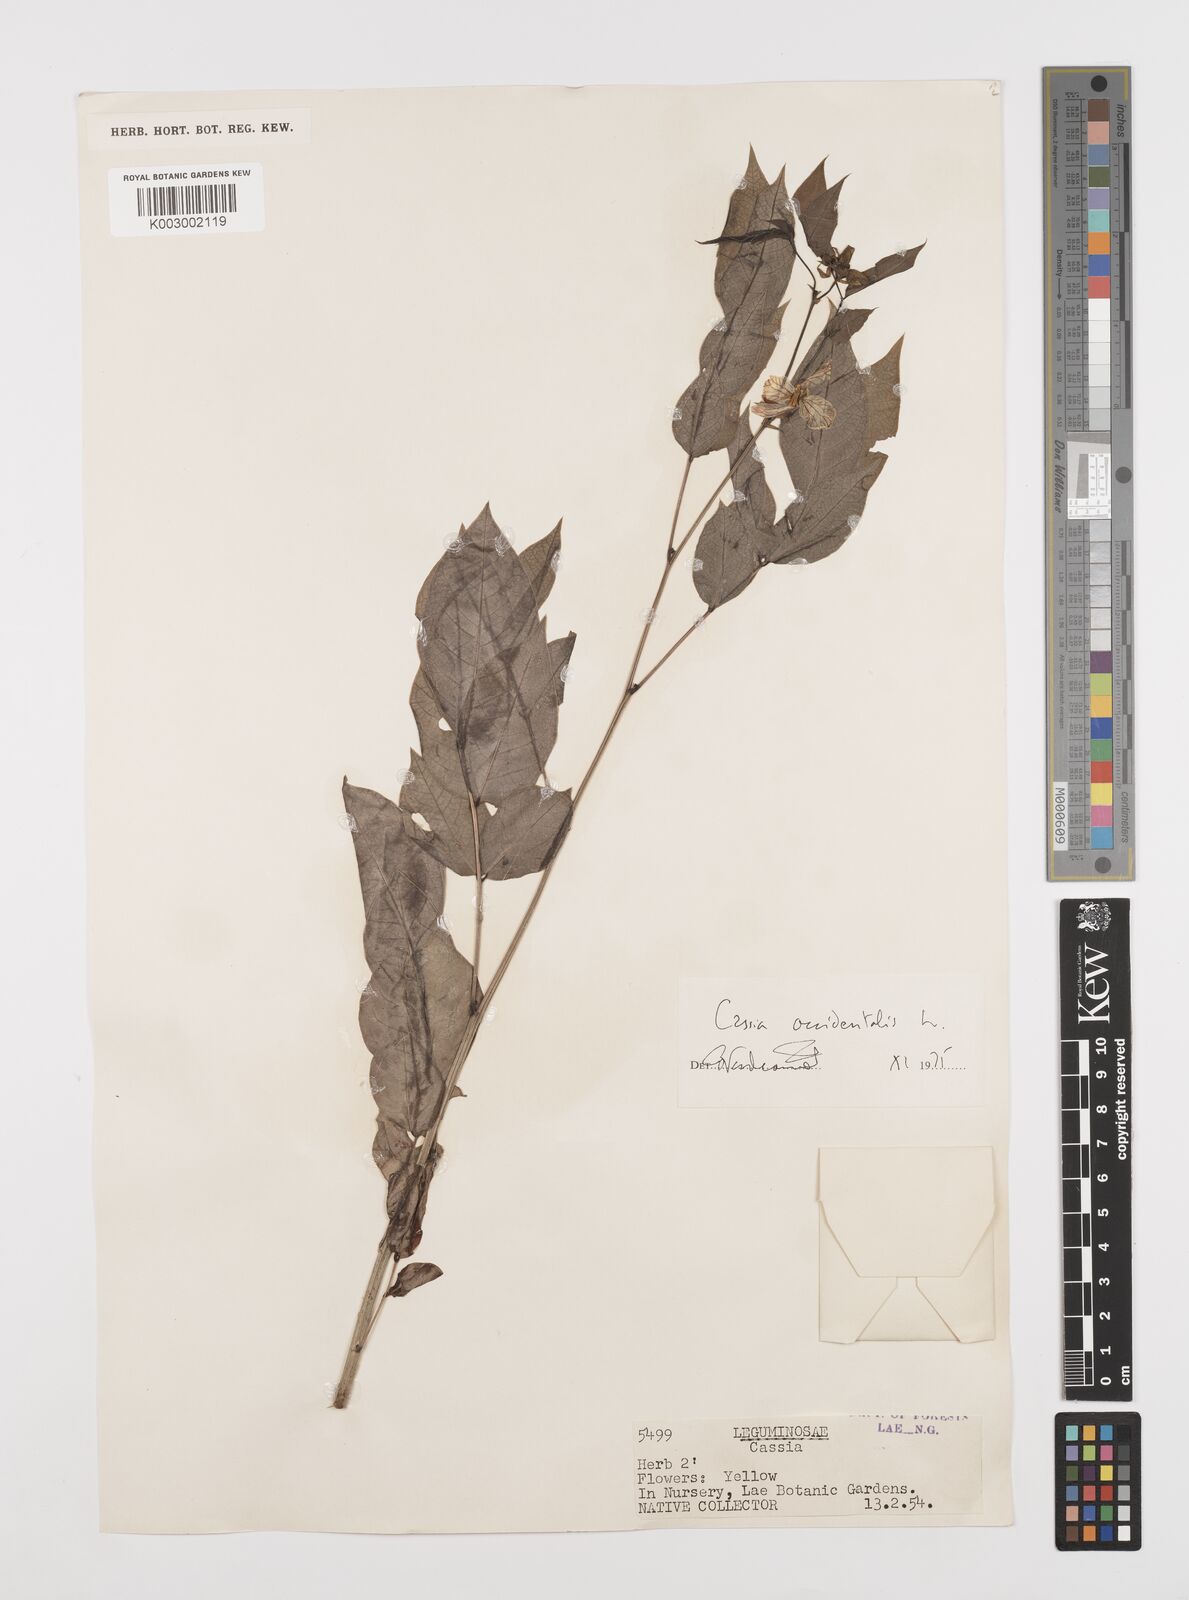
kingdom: Plantae
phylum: Tracheophyta
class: Magnoliopsida
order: Fabales
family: Fabaceae
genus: Senna
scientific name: Senna occidentalis
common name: Septicweed
